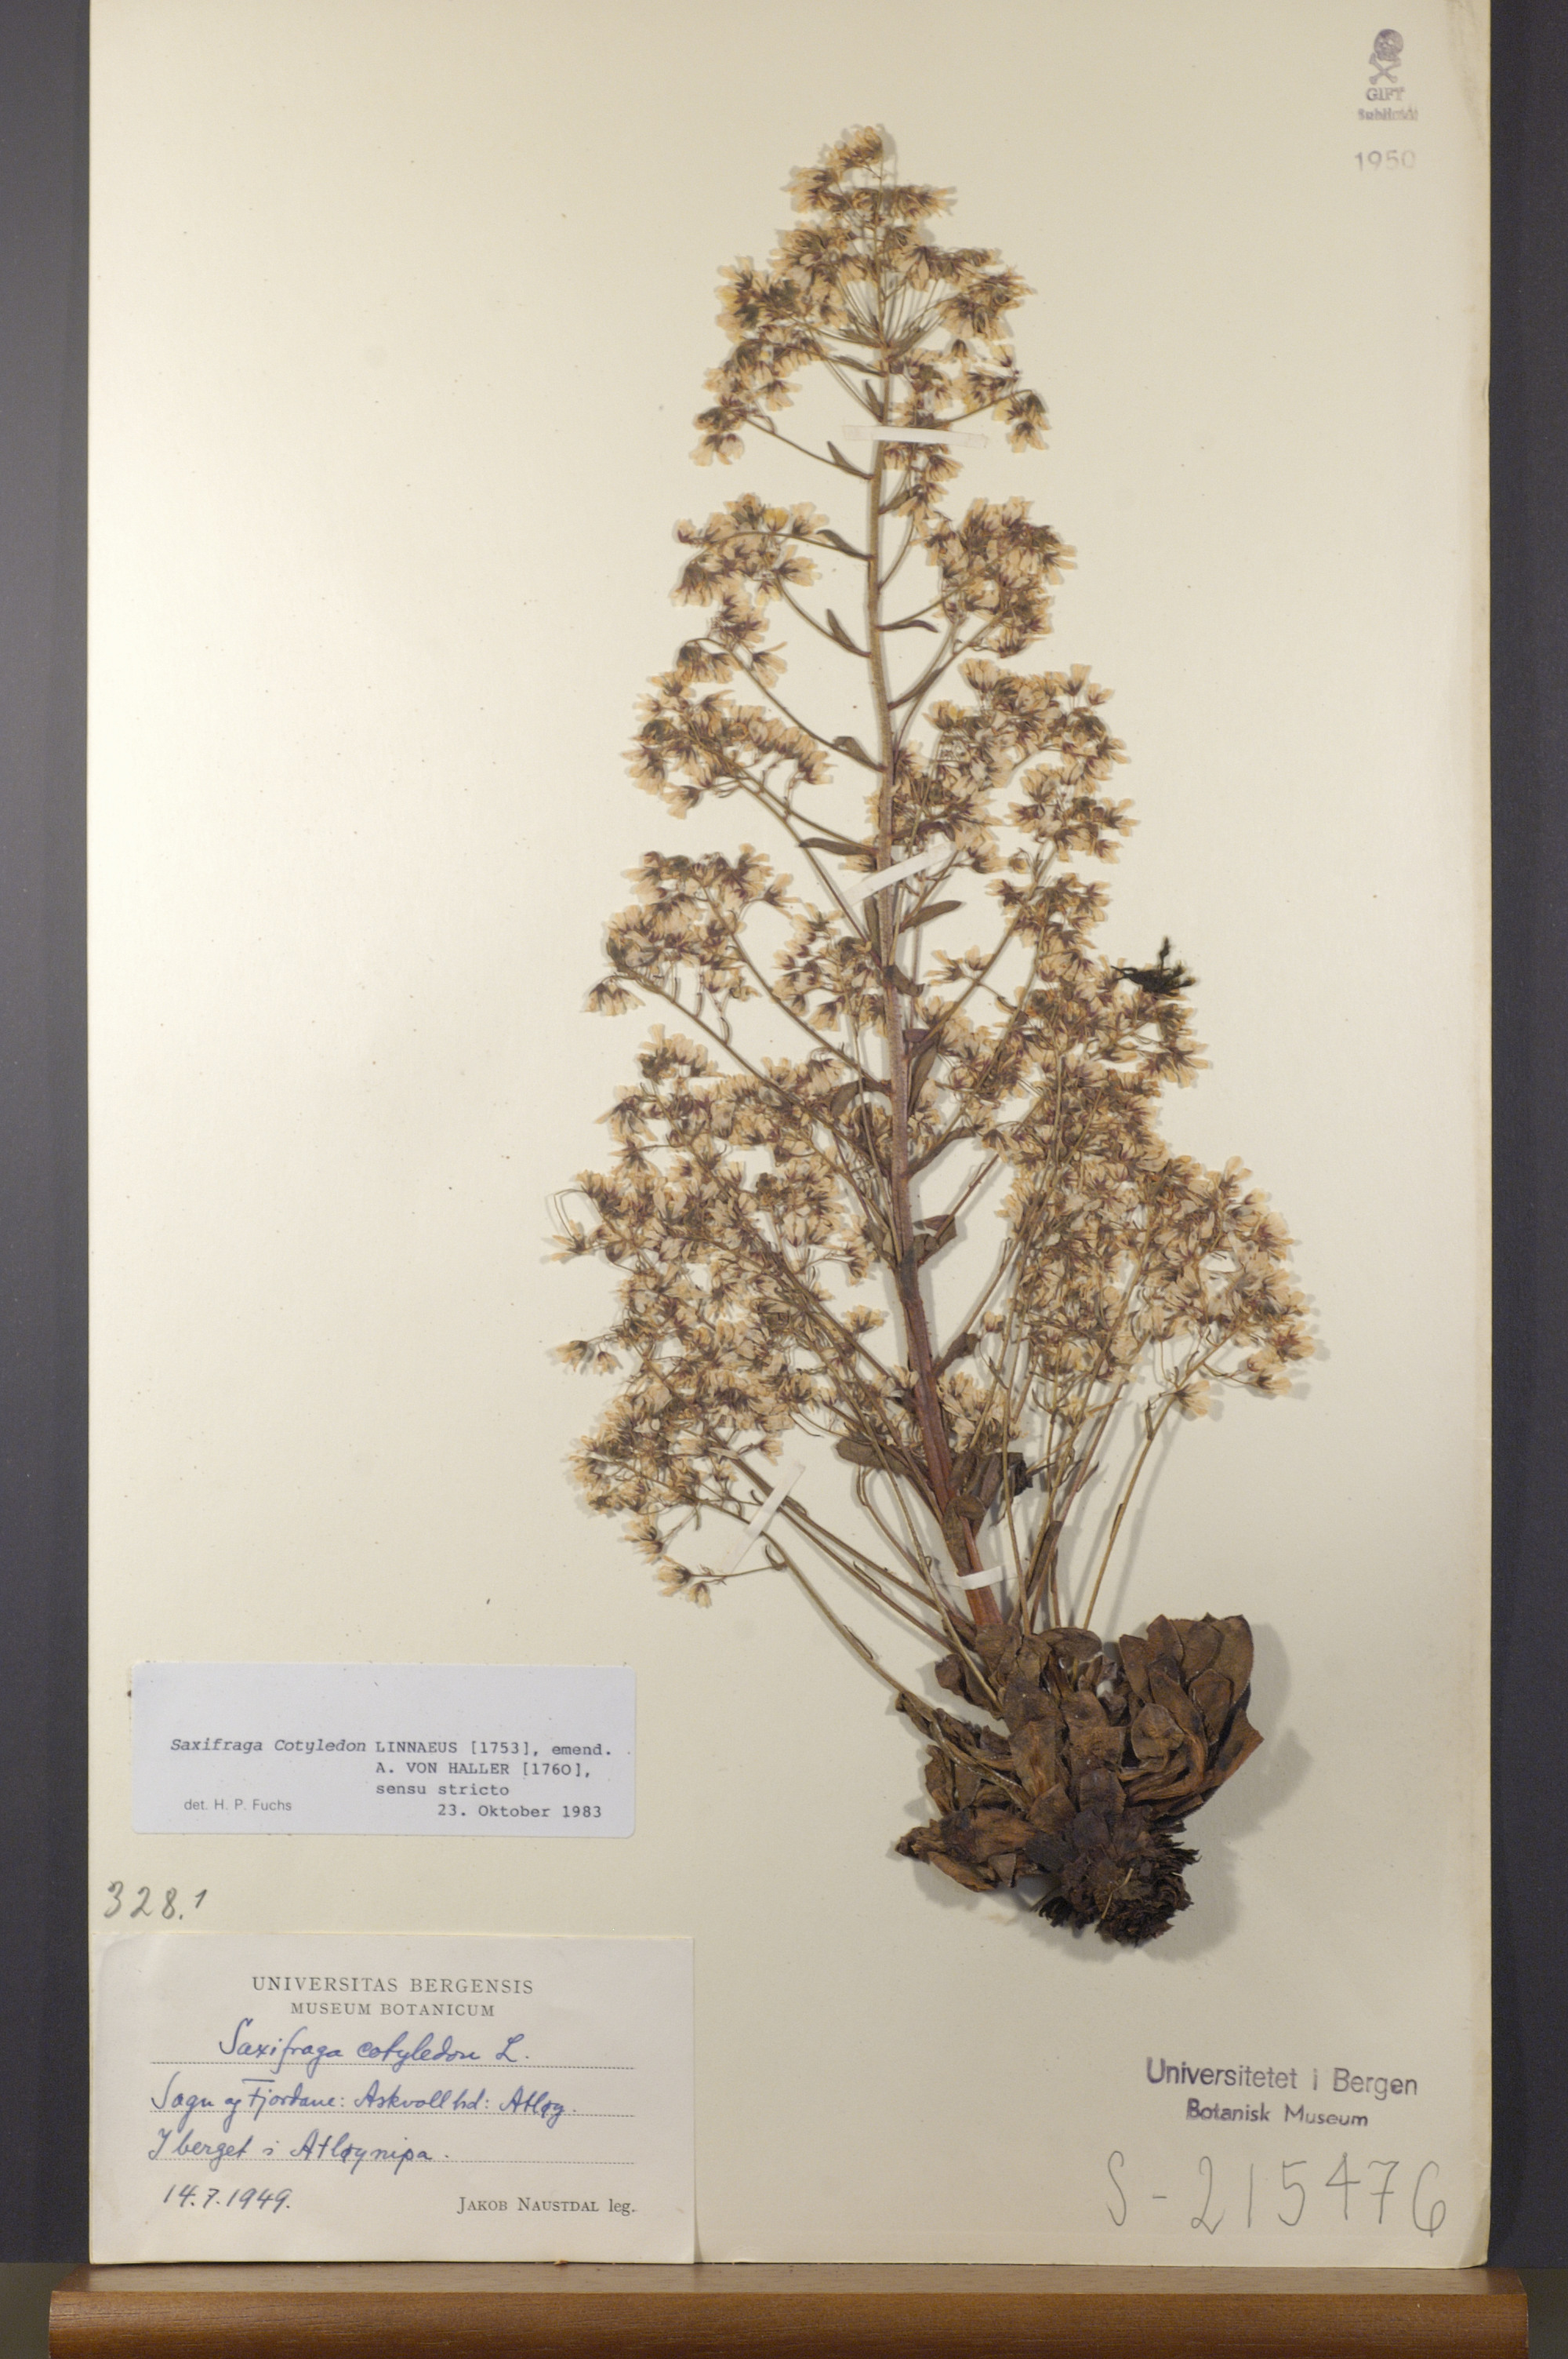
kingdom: Plantae
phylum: Tracheophyta
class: Magnoliopsida
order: Saxifragales
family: Saxifragaceae
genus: Saxifraga
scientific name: Saxifraga cotyledon
